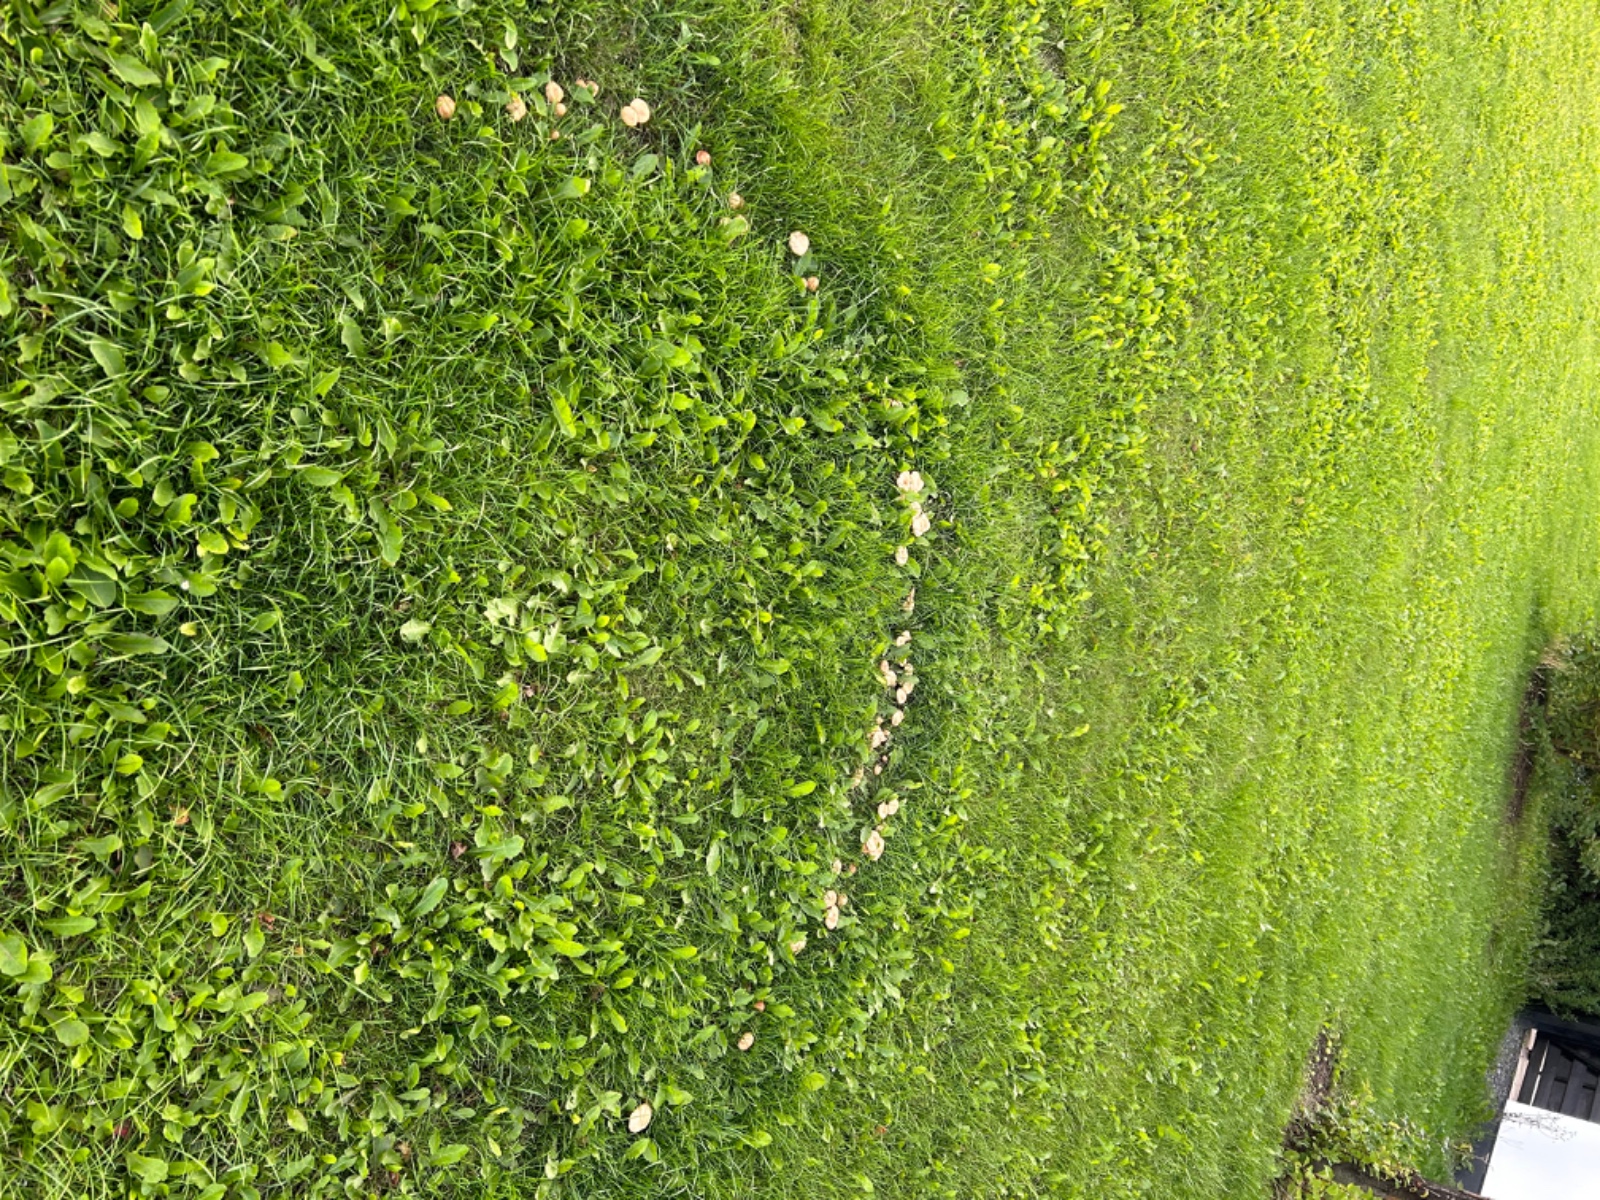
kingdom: Fungi
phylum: Basidiomycota
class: Agaricomycetes
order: Agaricales
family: Marasmiaceae
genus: Marasmius
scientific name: Marasmius oreades
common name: elledans-bruskhat
